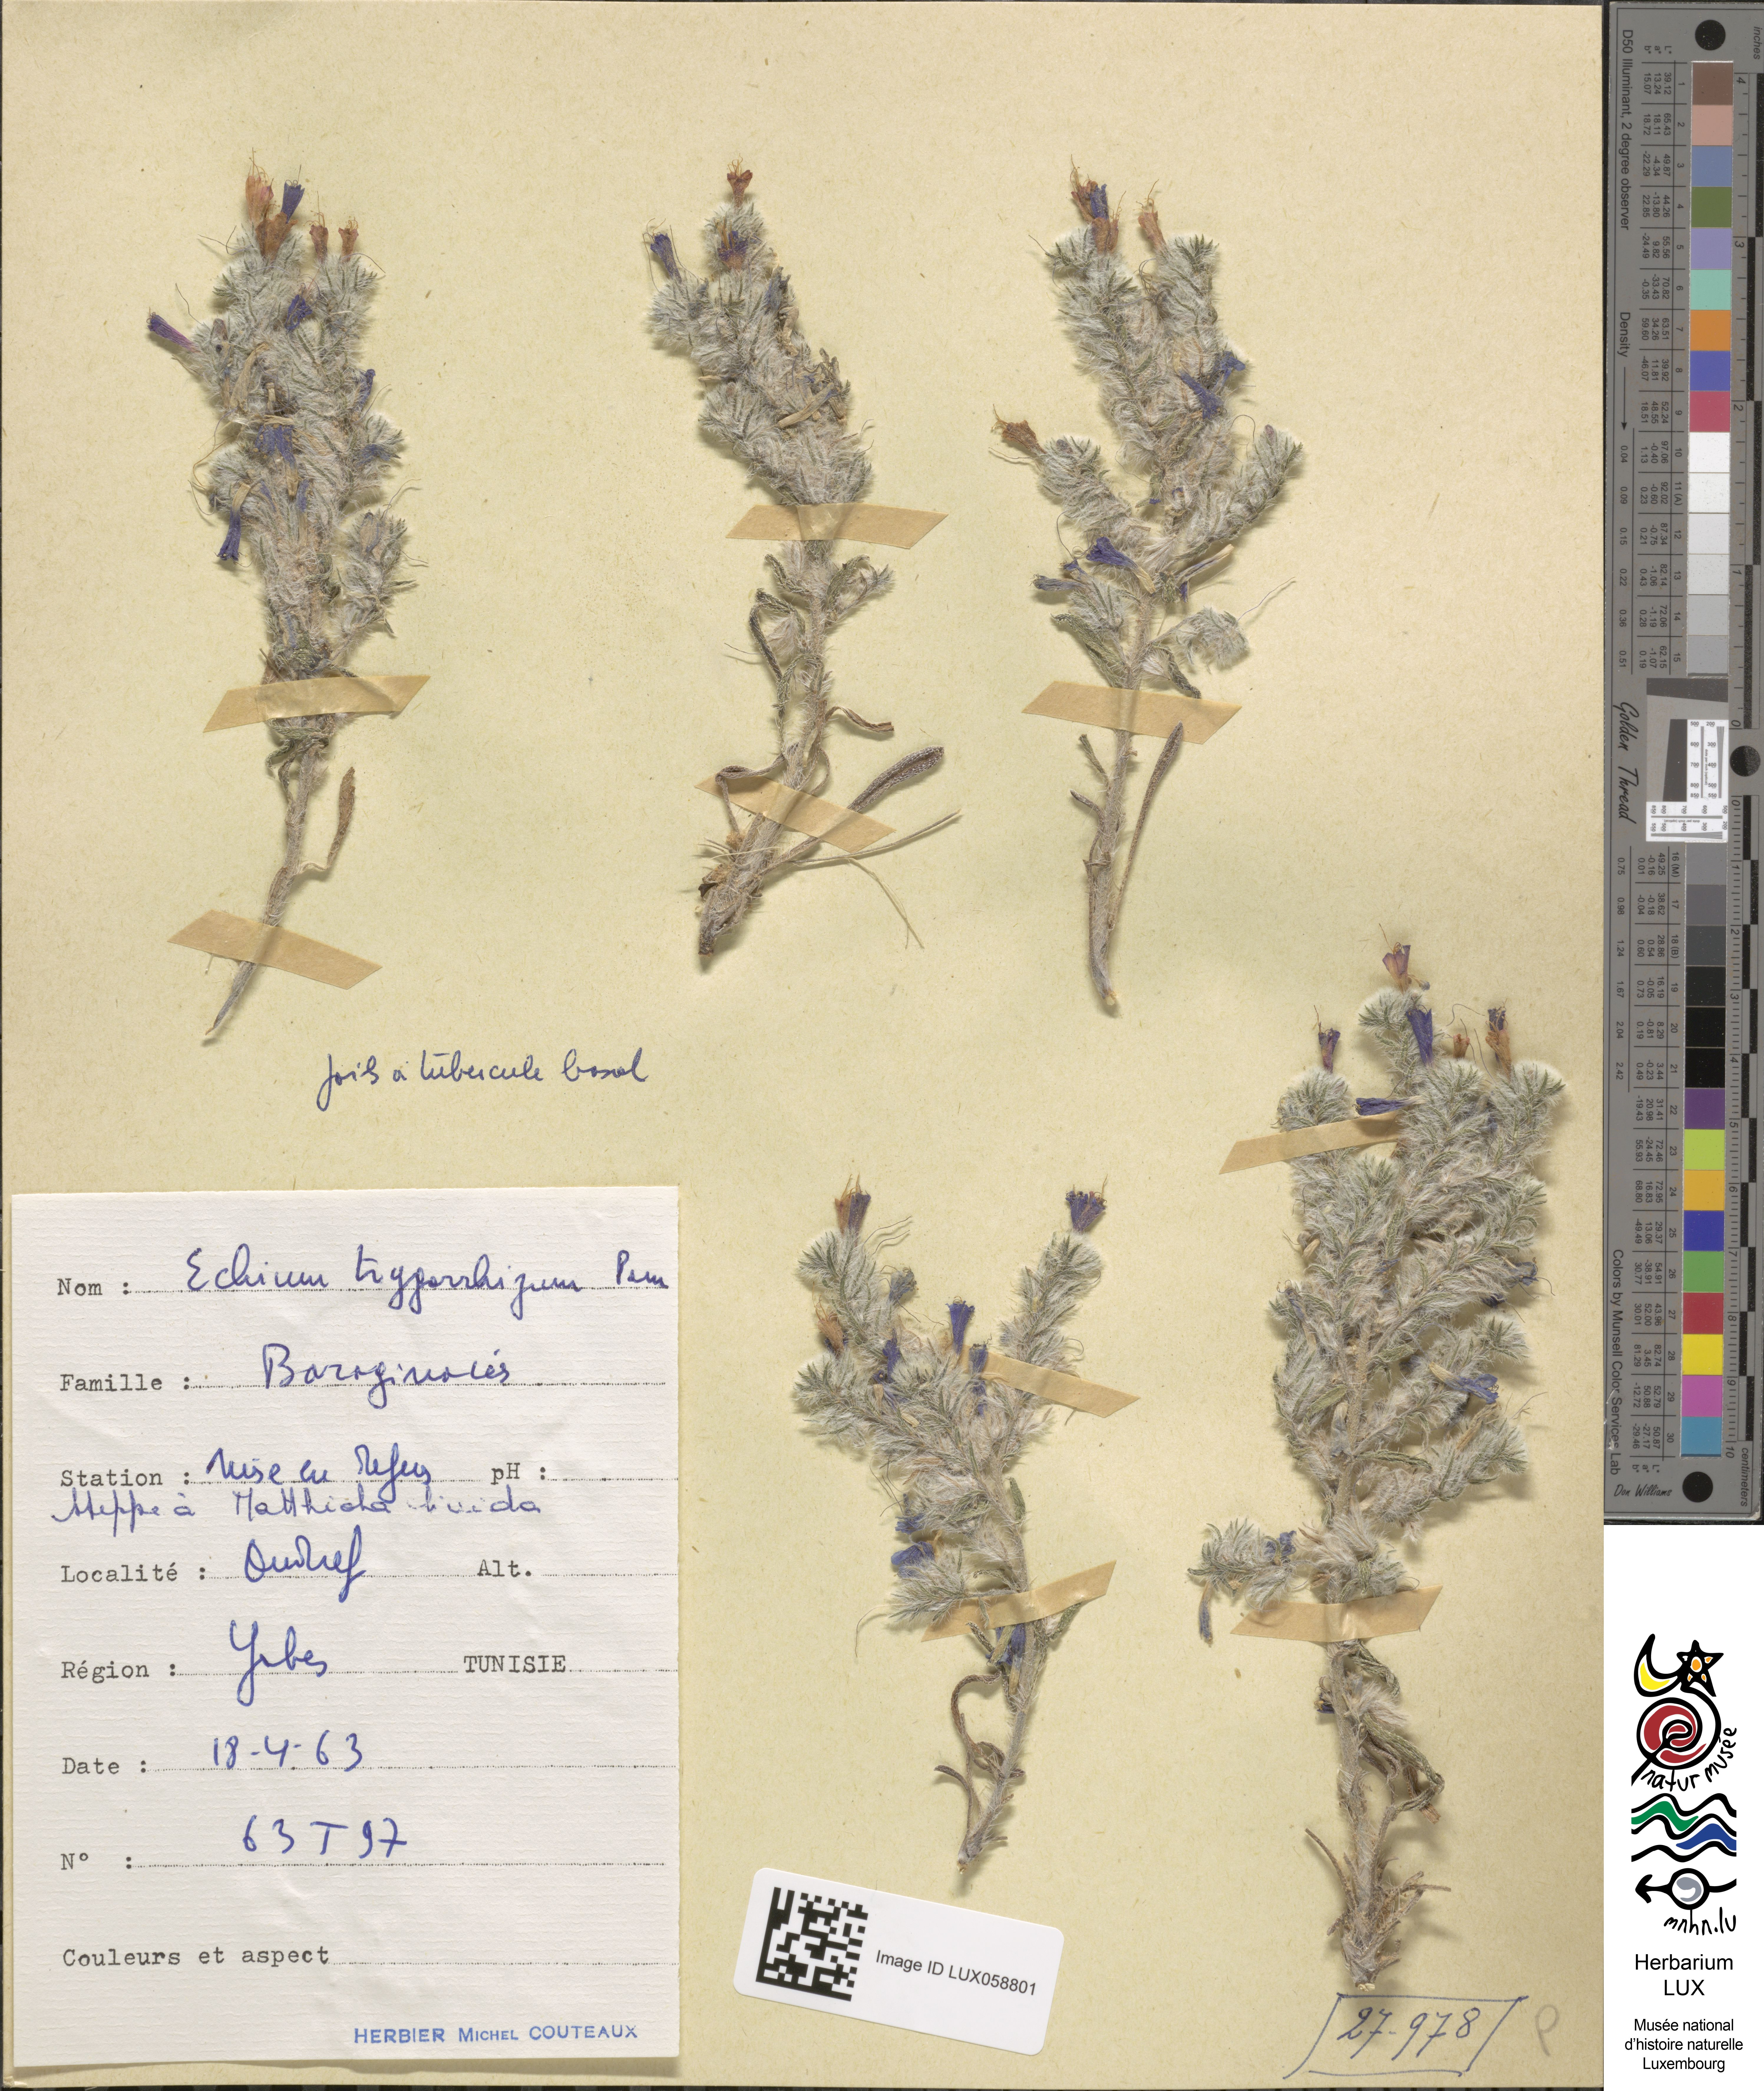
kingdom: Plantae
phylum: Tracheophyta
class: Magnoliopsida
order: Boraginales
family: Boraginaceae
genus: Echium
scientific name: Echium trygorrhizum
